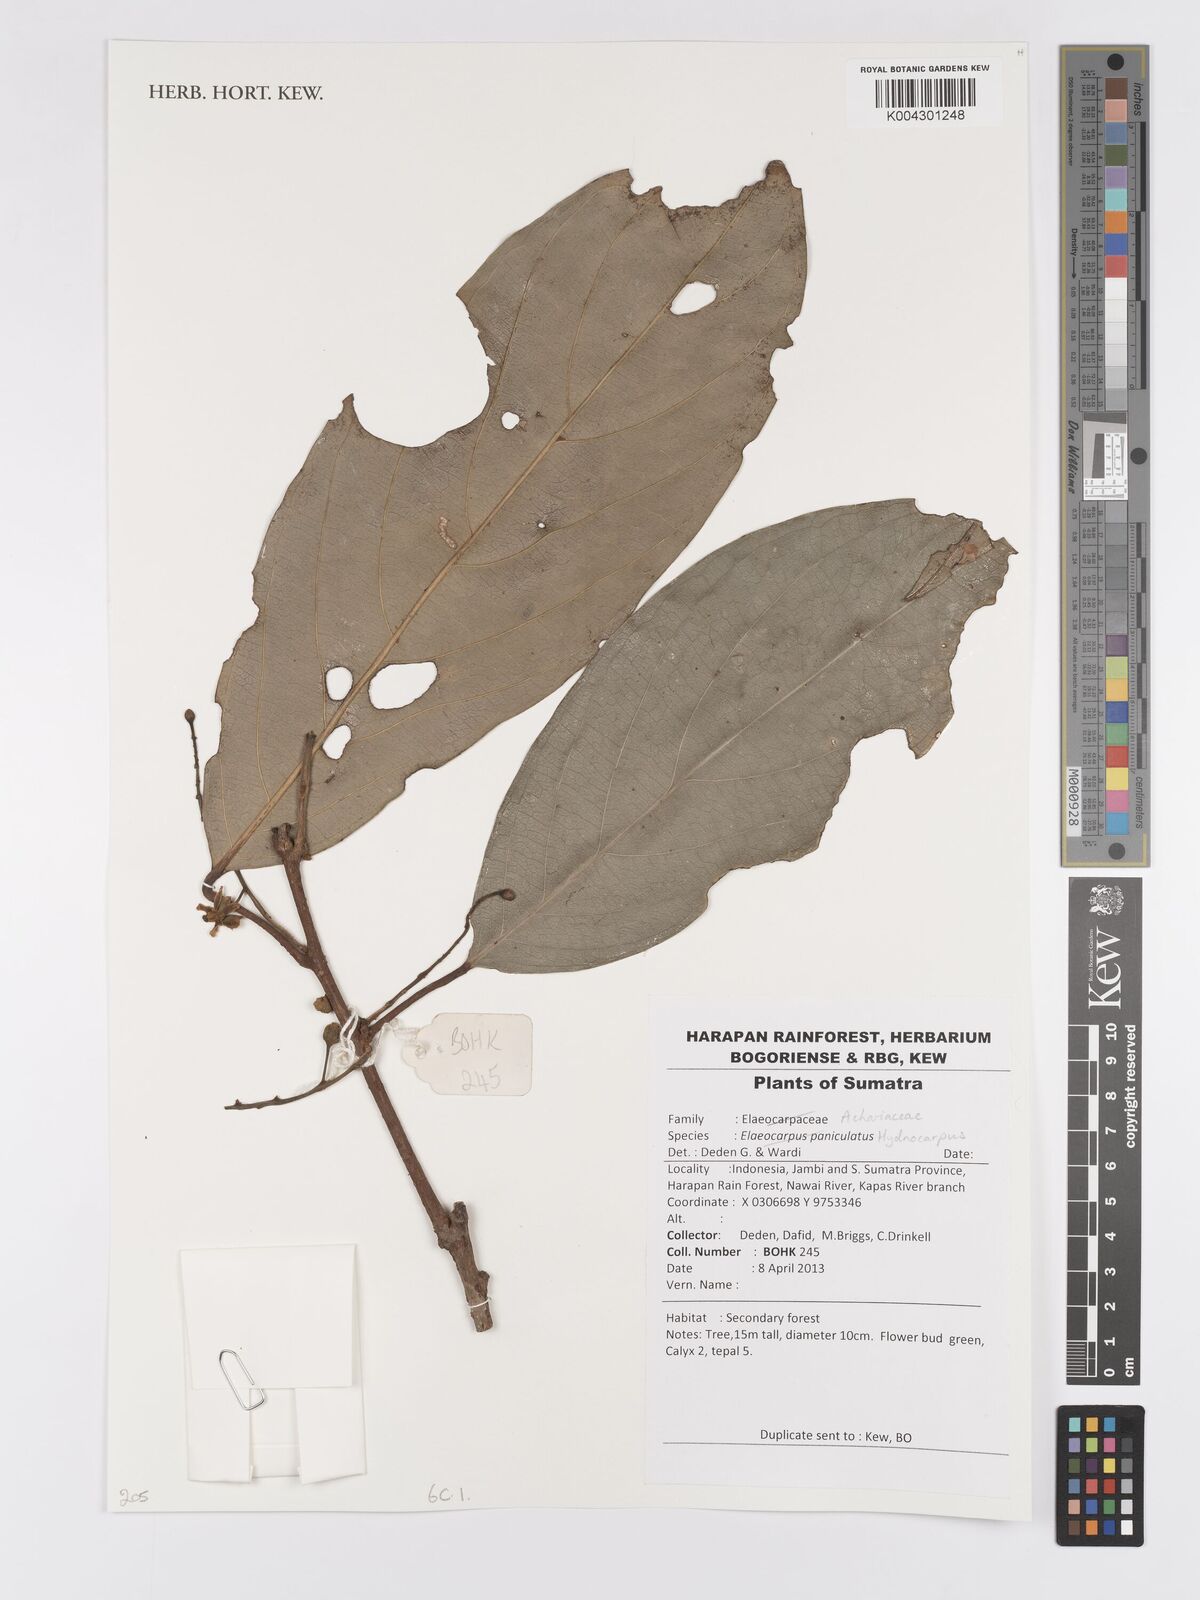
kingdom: Plantae
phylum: Tracheophyta
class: Magnoliopsida
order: Malpighiales
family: Achariaceae
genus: Hydnocarpus
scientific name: Hydnocarpus
